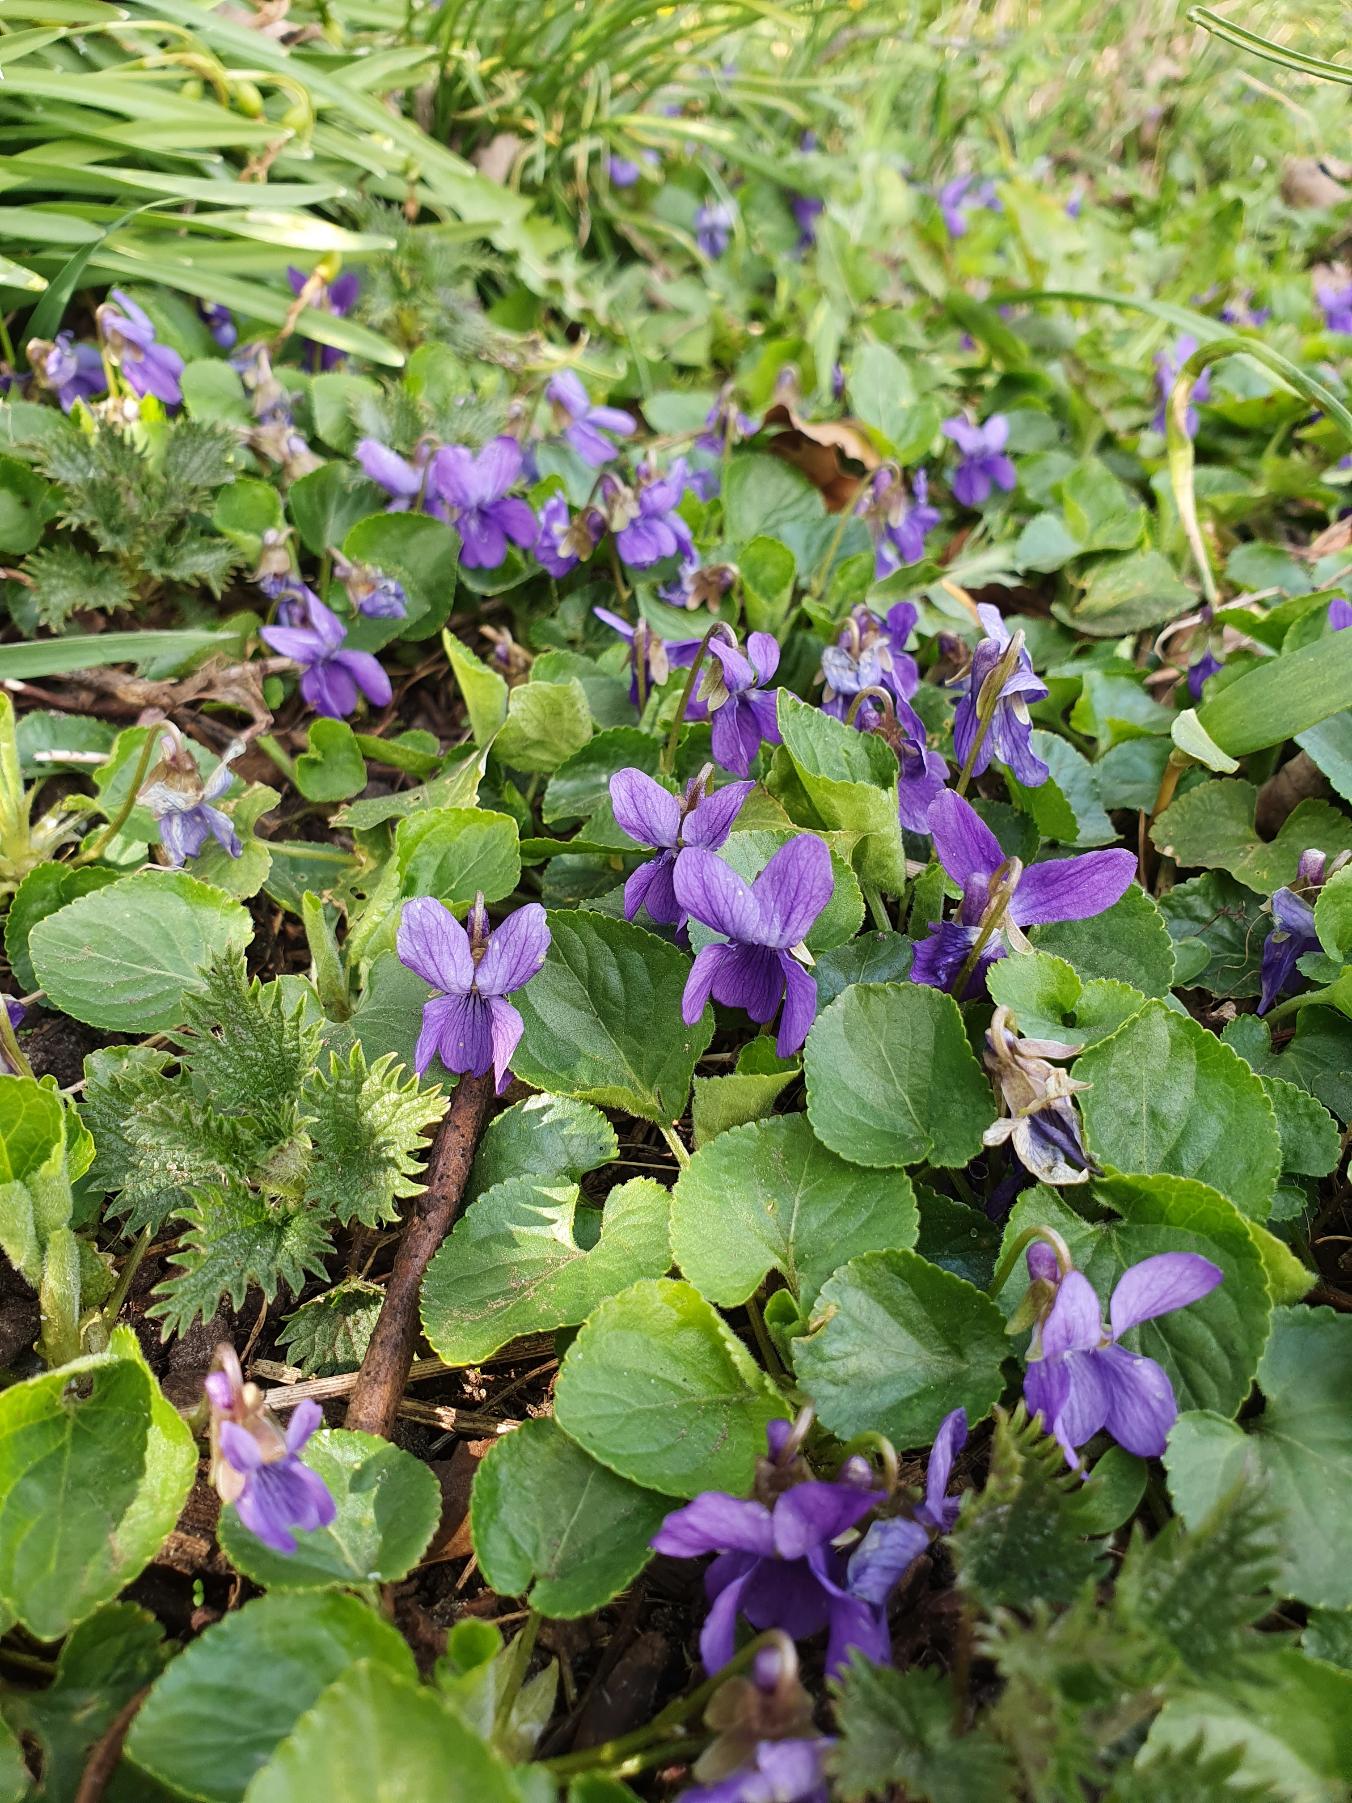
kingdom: Plantae
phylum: Tracheophyta
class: Magnoliopsida
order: Malpighiales
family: Violaceae
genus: Viola
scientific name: Viola odorata
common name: Marts-viol
